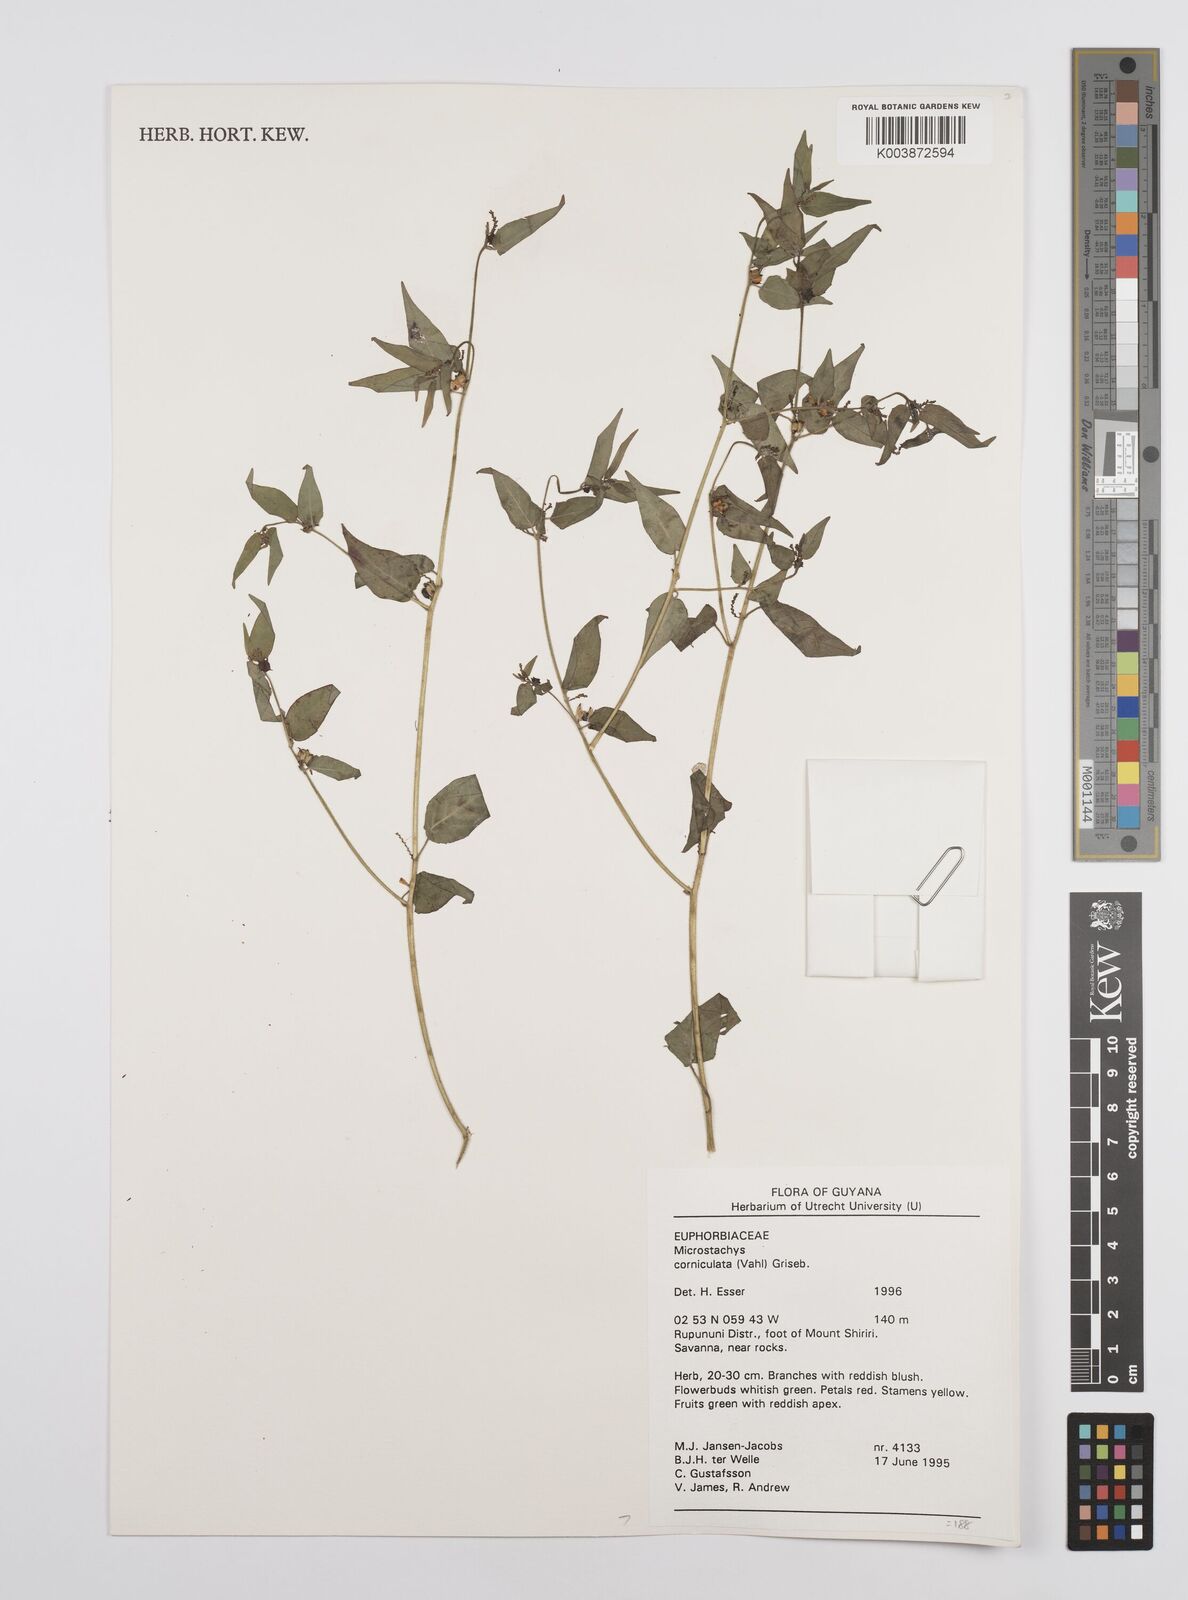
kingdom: Plantae
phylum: Tracheophyta
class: Magnoliopsida
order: Malpighiales
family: Euphorbiaceae
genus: Microstachys
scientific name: Microstachys corniculata
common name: Hato tejas
